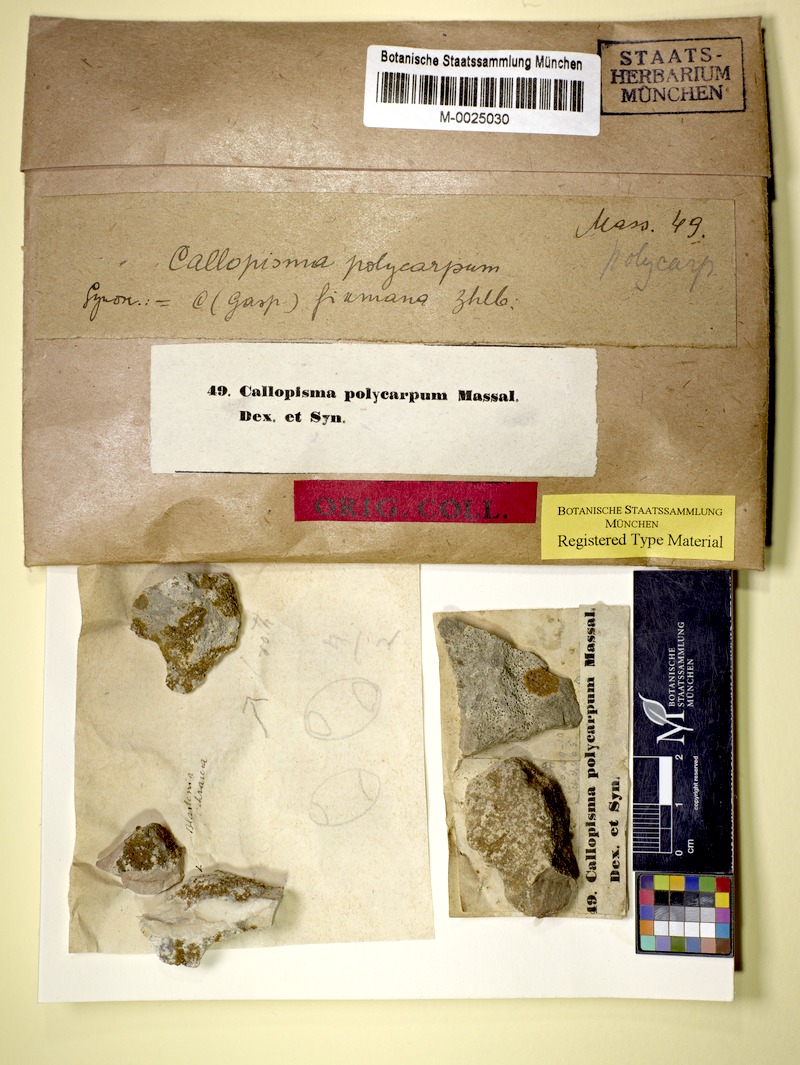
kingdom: Fungi
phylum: Ascomycota
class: Lecanoromycetes
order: Teloschistales
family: Teloschistaceae
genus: Flavoplaca
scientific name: Flavoplaca polycarpa
